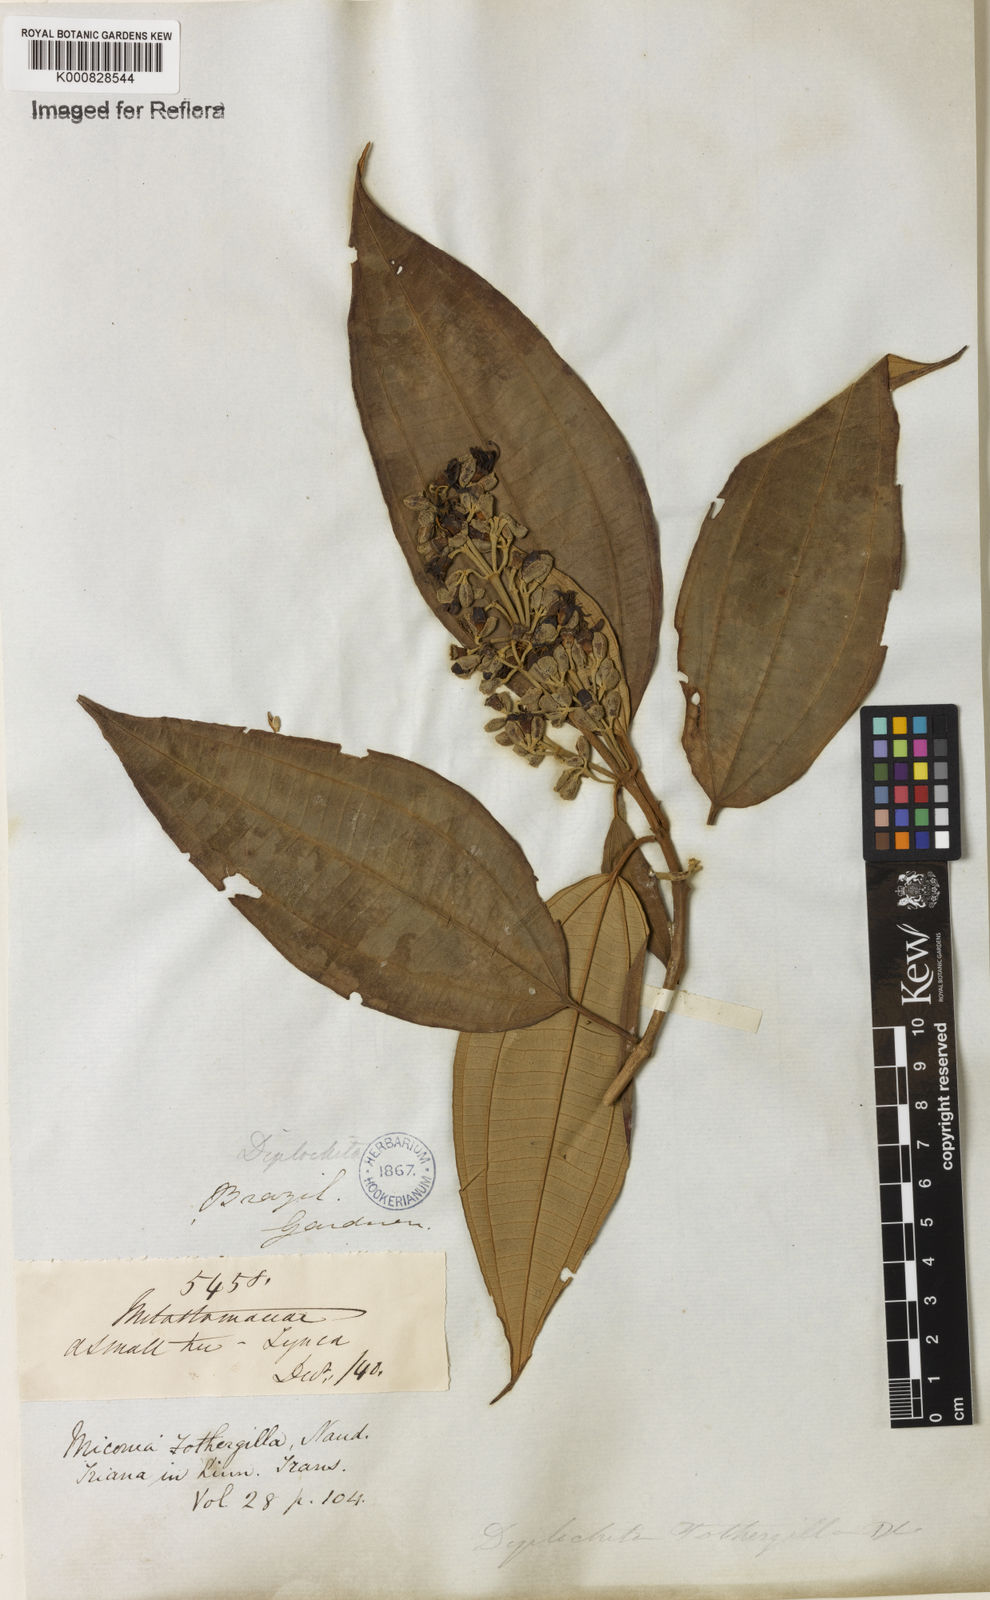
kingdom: Plantae
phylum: Tracheophyta
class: Magnoliopsida
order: Myrtales
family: Melastomataceae
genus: Miconia
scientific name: Miconia mirabilis
